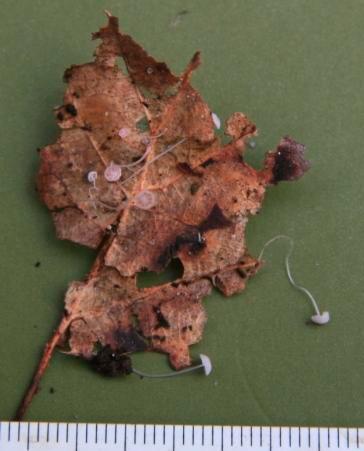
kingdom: Fungi
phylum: Basidiomycota
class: Agaricomycetes
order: Agaricales
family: Mycenaceae
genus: Mycena
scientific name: Mycena smithiana
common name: blegrød huesvamp
